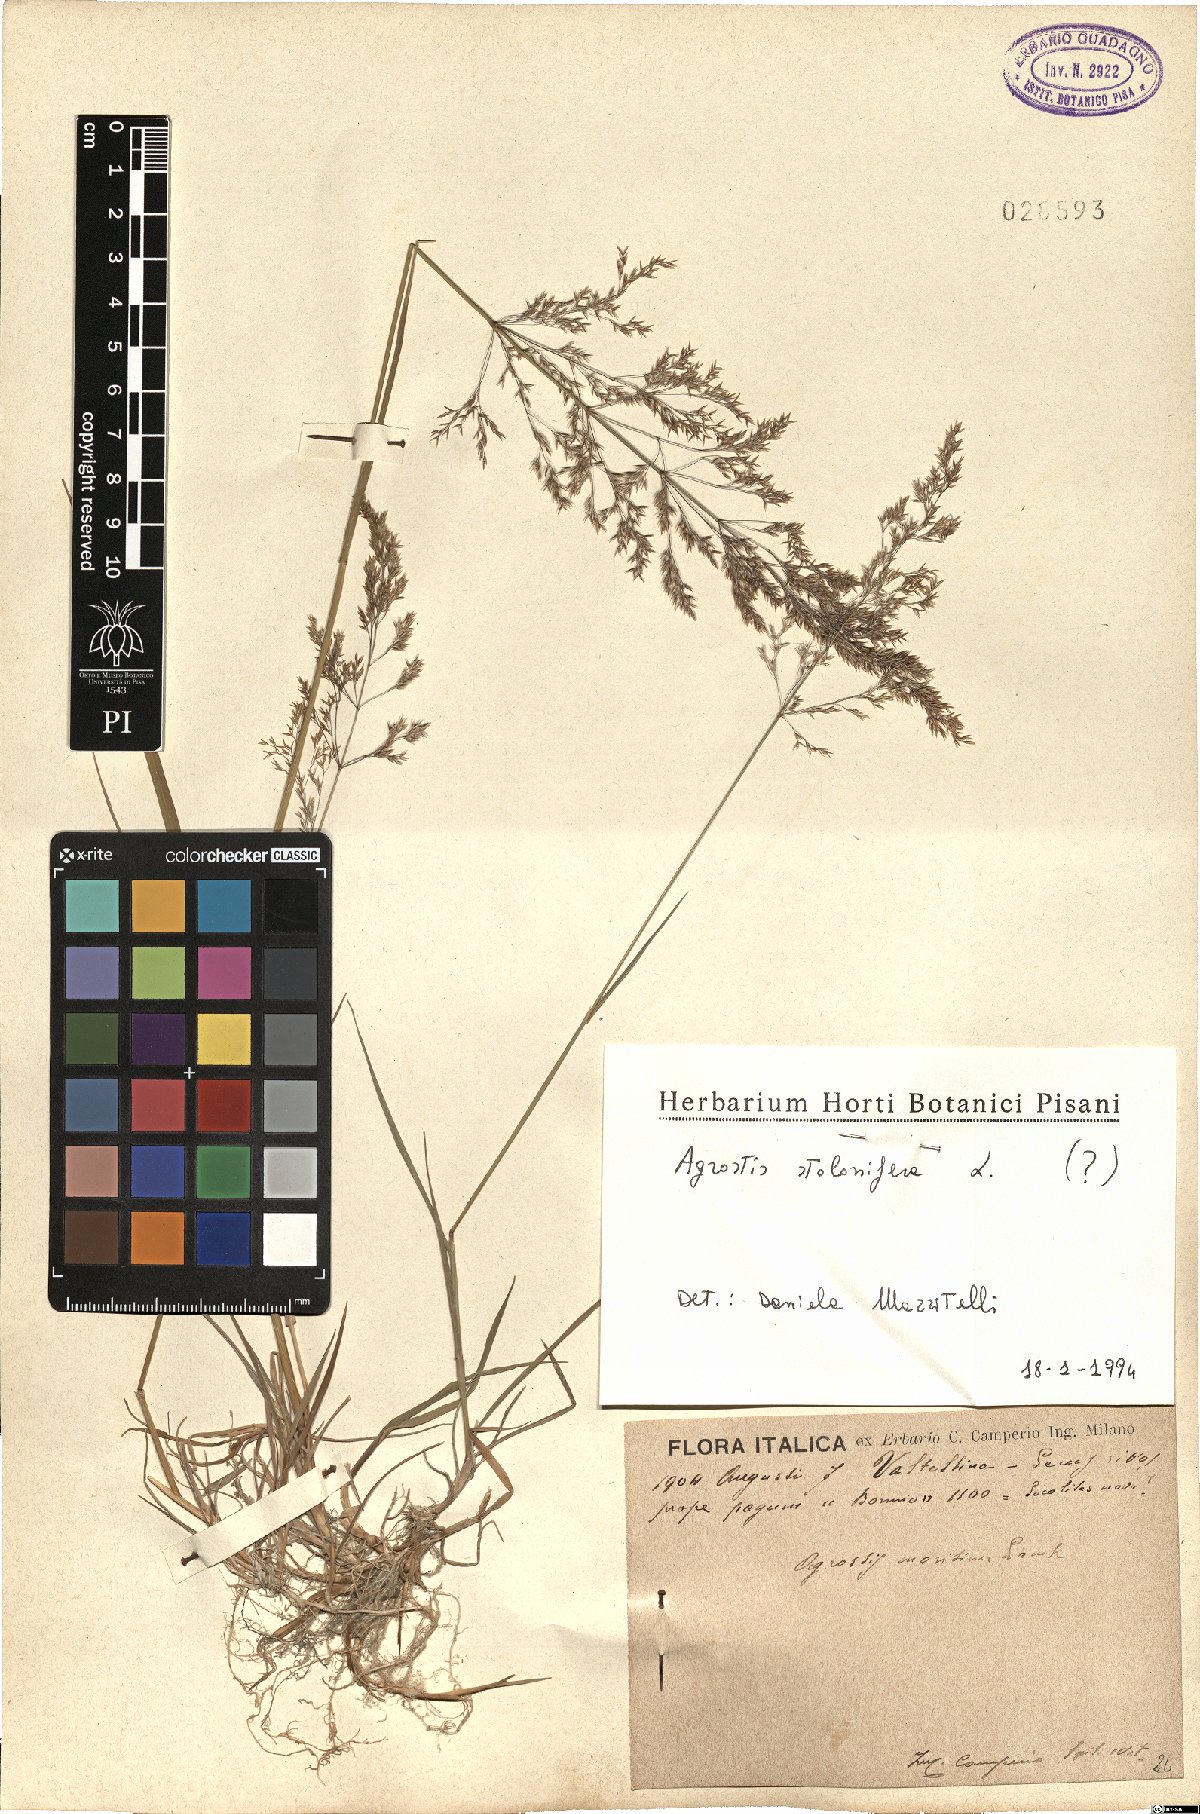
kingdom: Plantae
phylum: Tracheophyta
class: Liliopsida
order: Poales
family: Poaceae
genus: Agrostis
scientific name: Agrostis stolonifera
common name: Creeping bentgrass
